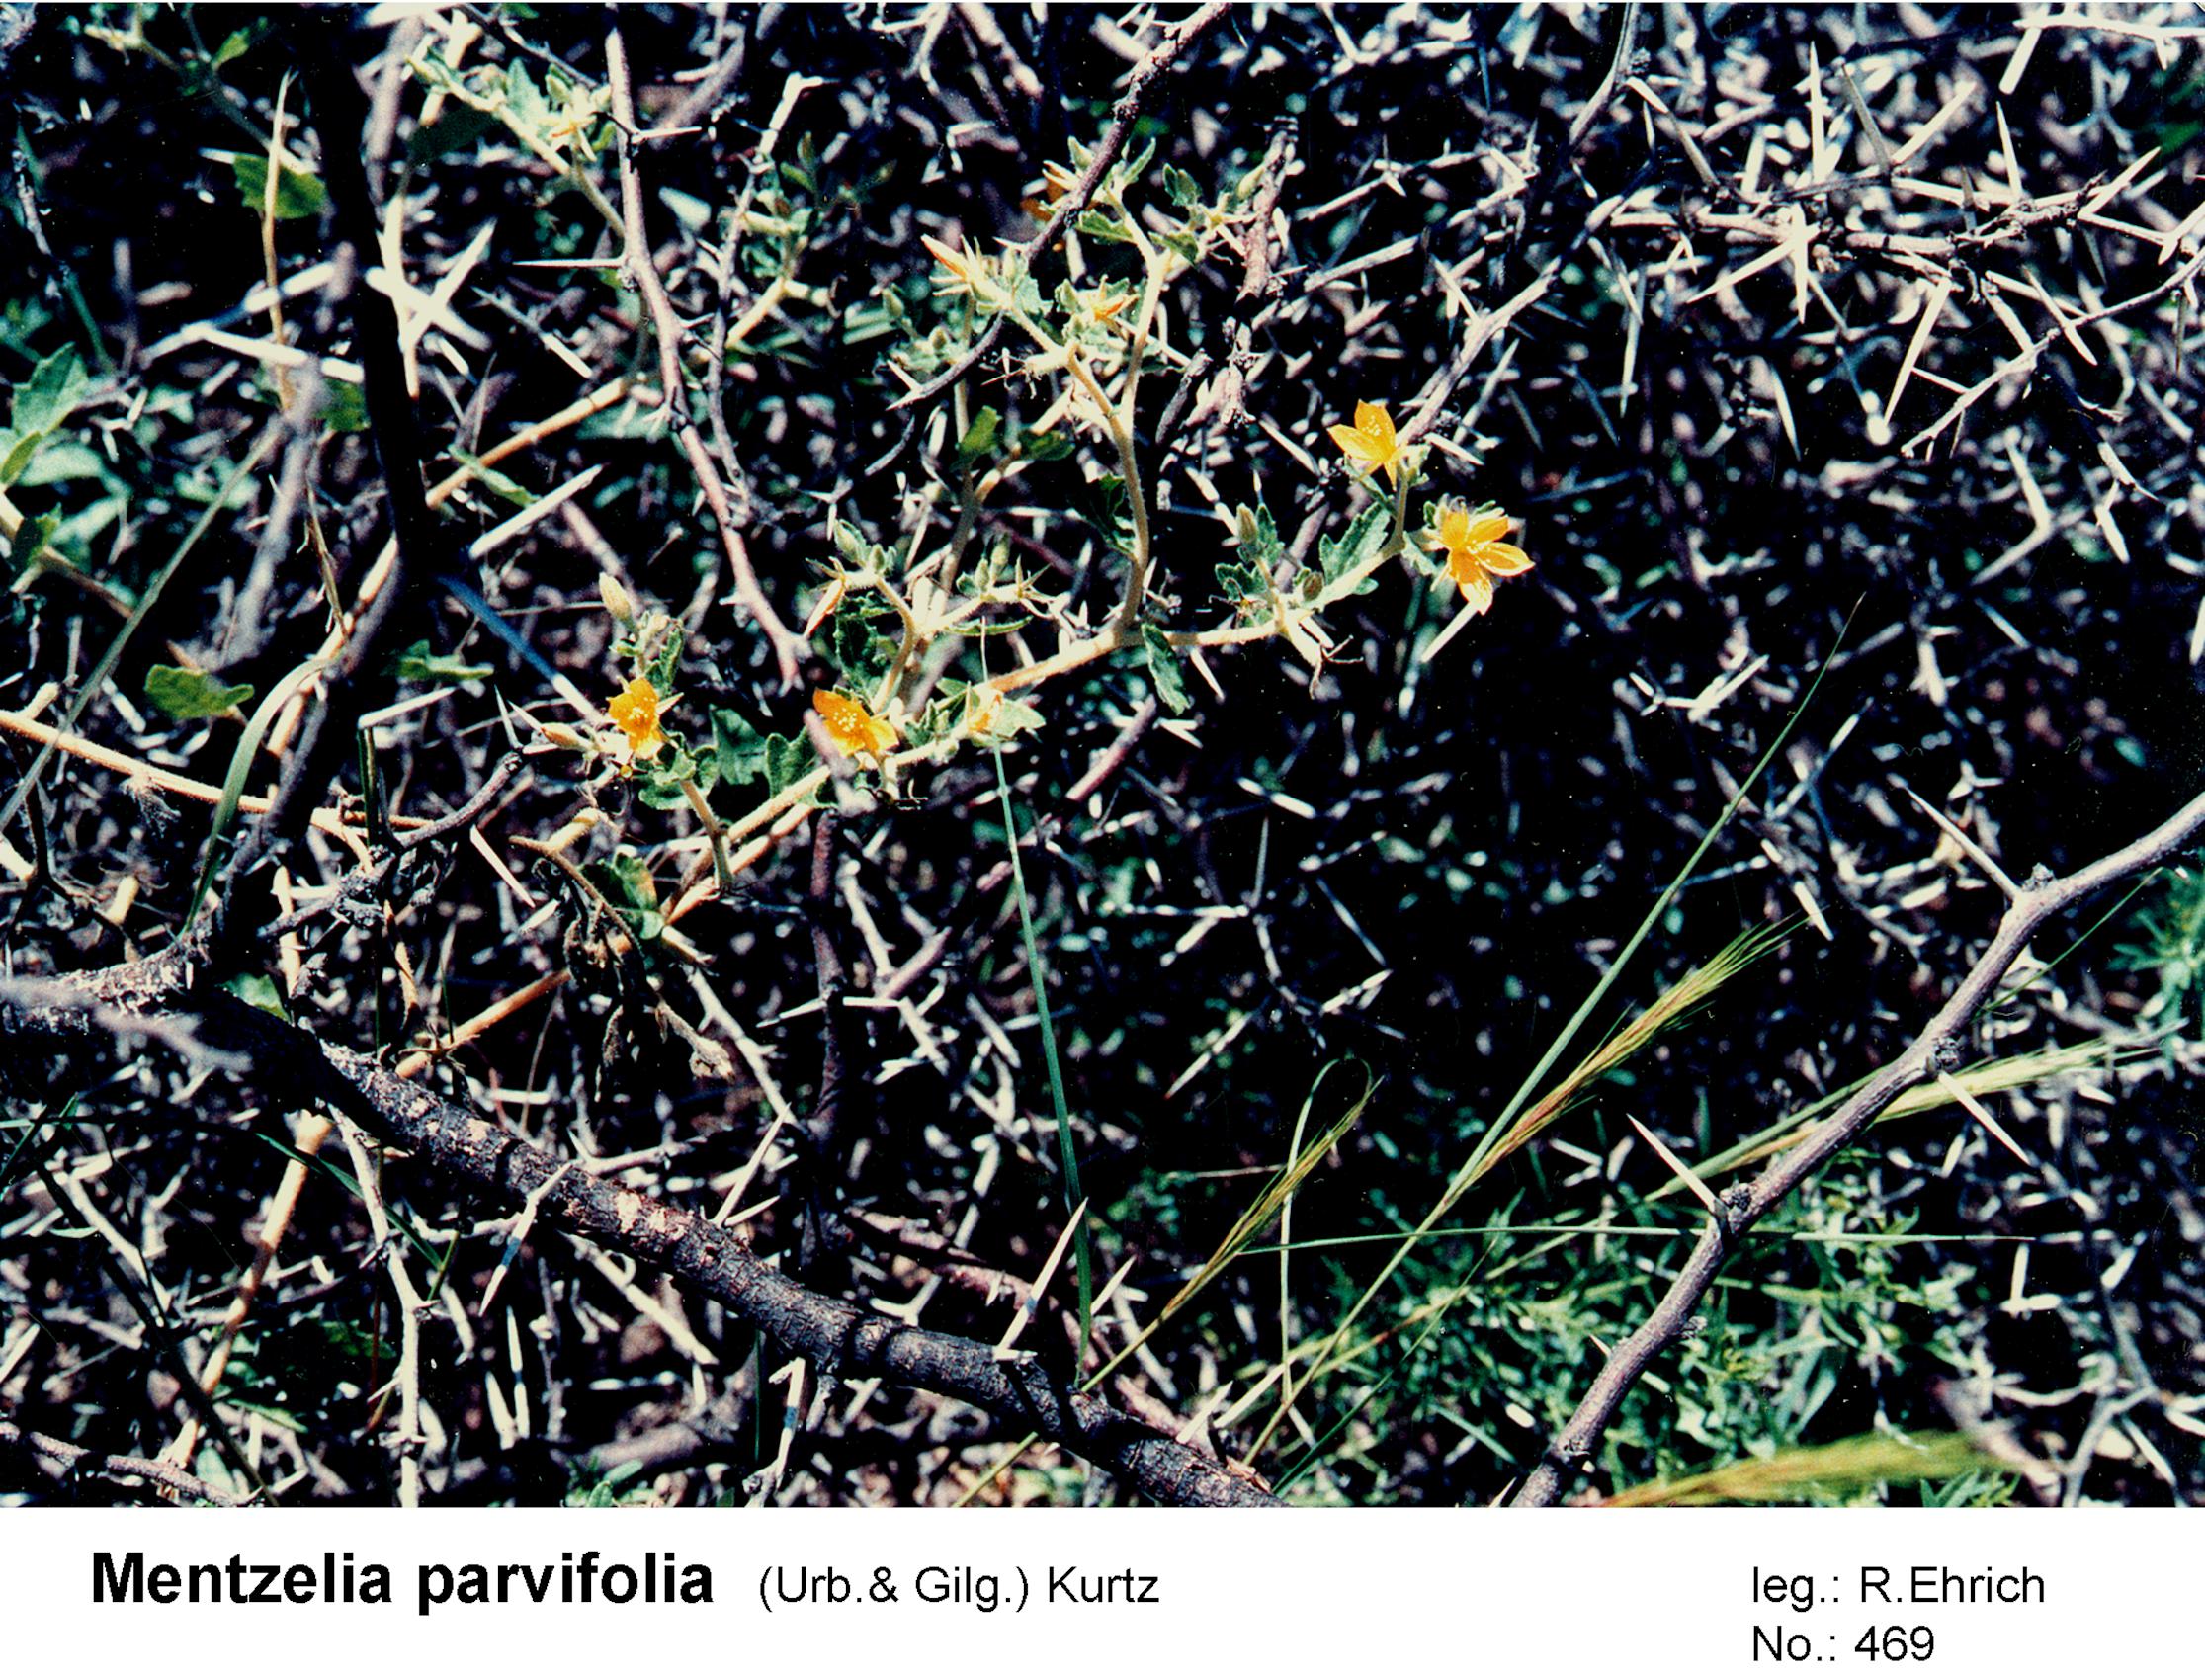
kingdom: Plantae
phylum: Tracheophyta
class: Magnoliopsida
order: Cornales
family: Loasaceae
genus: Mentzelia
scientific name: Mentzelia parvifolia
